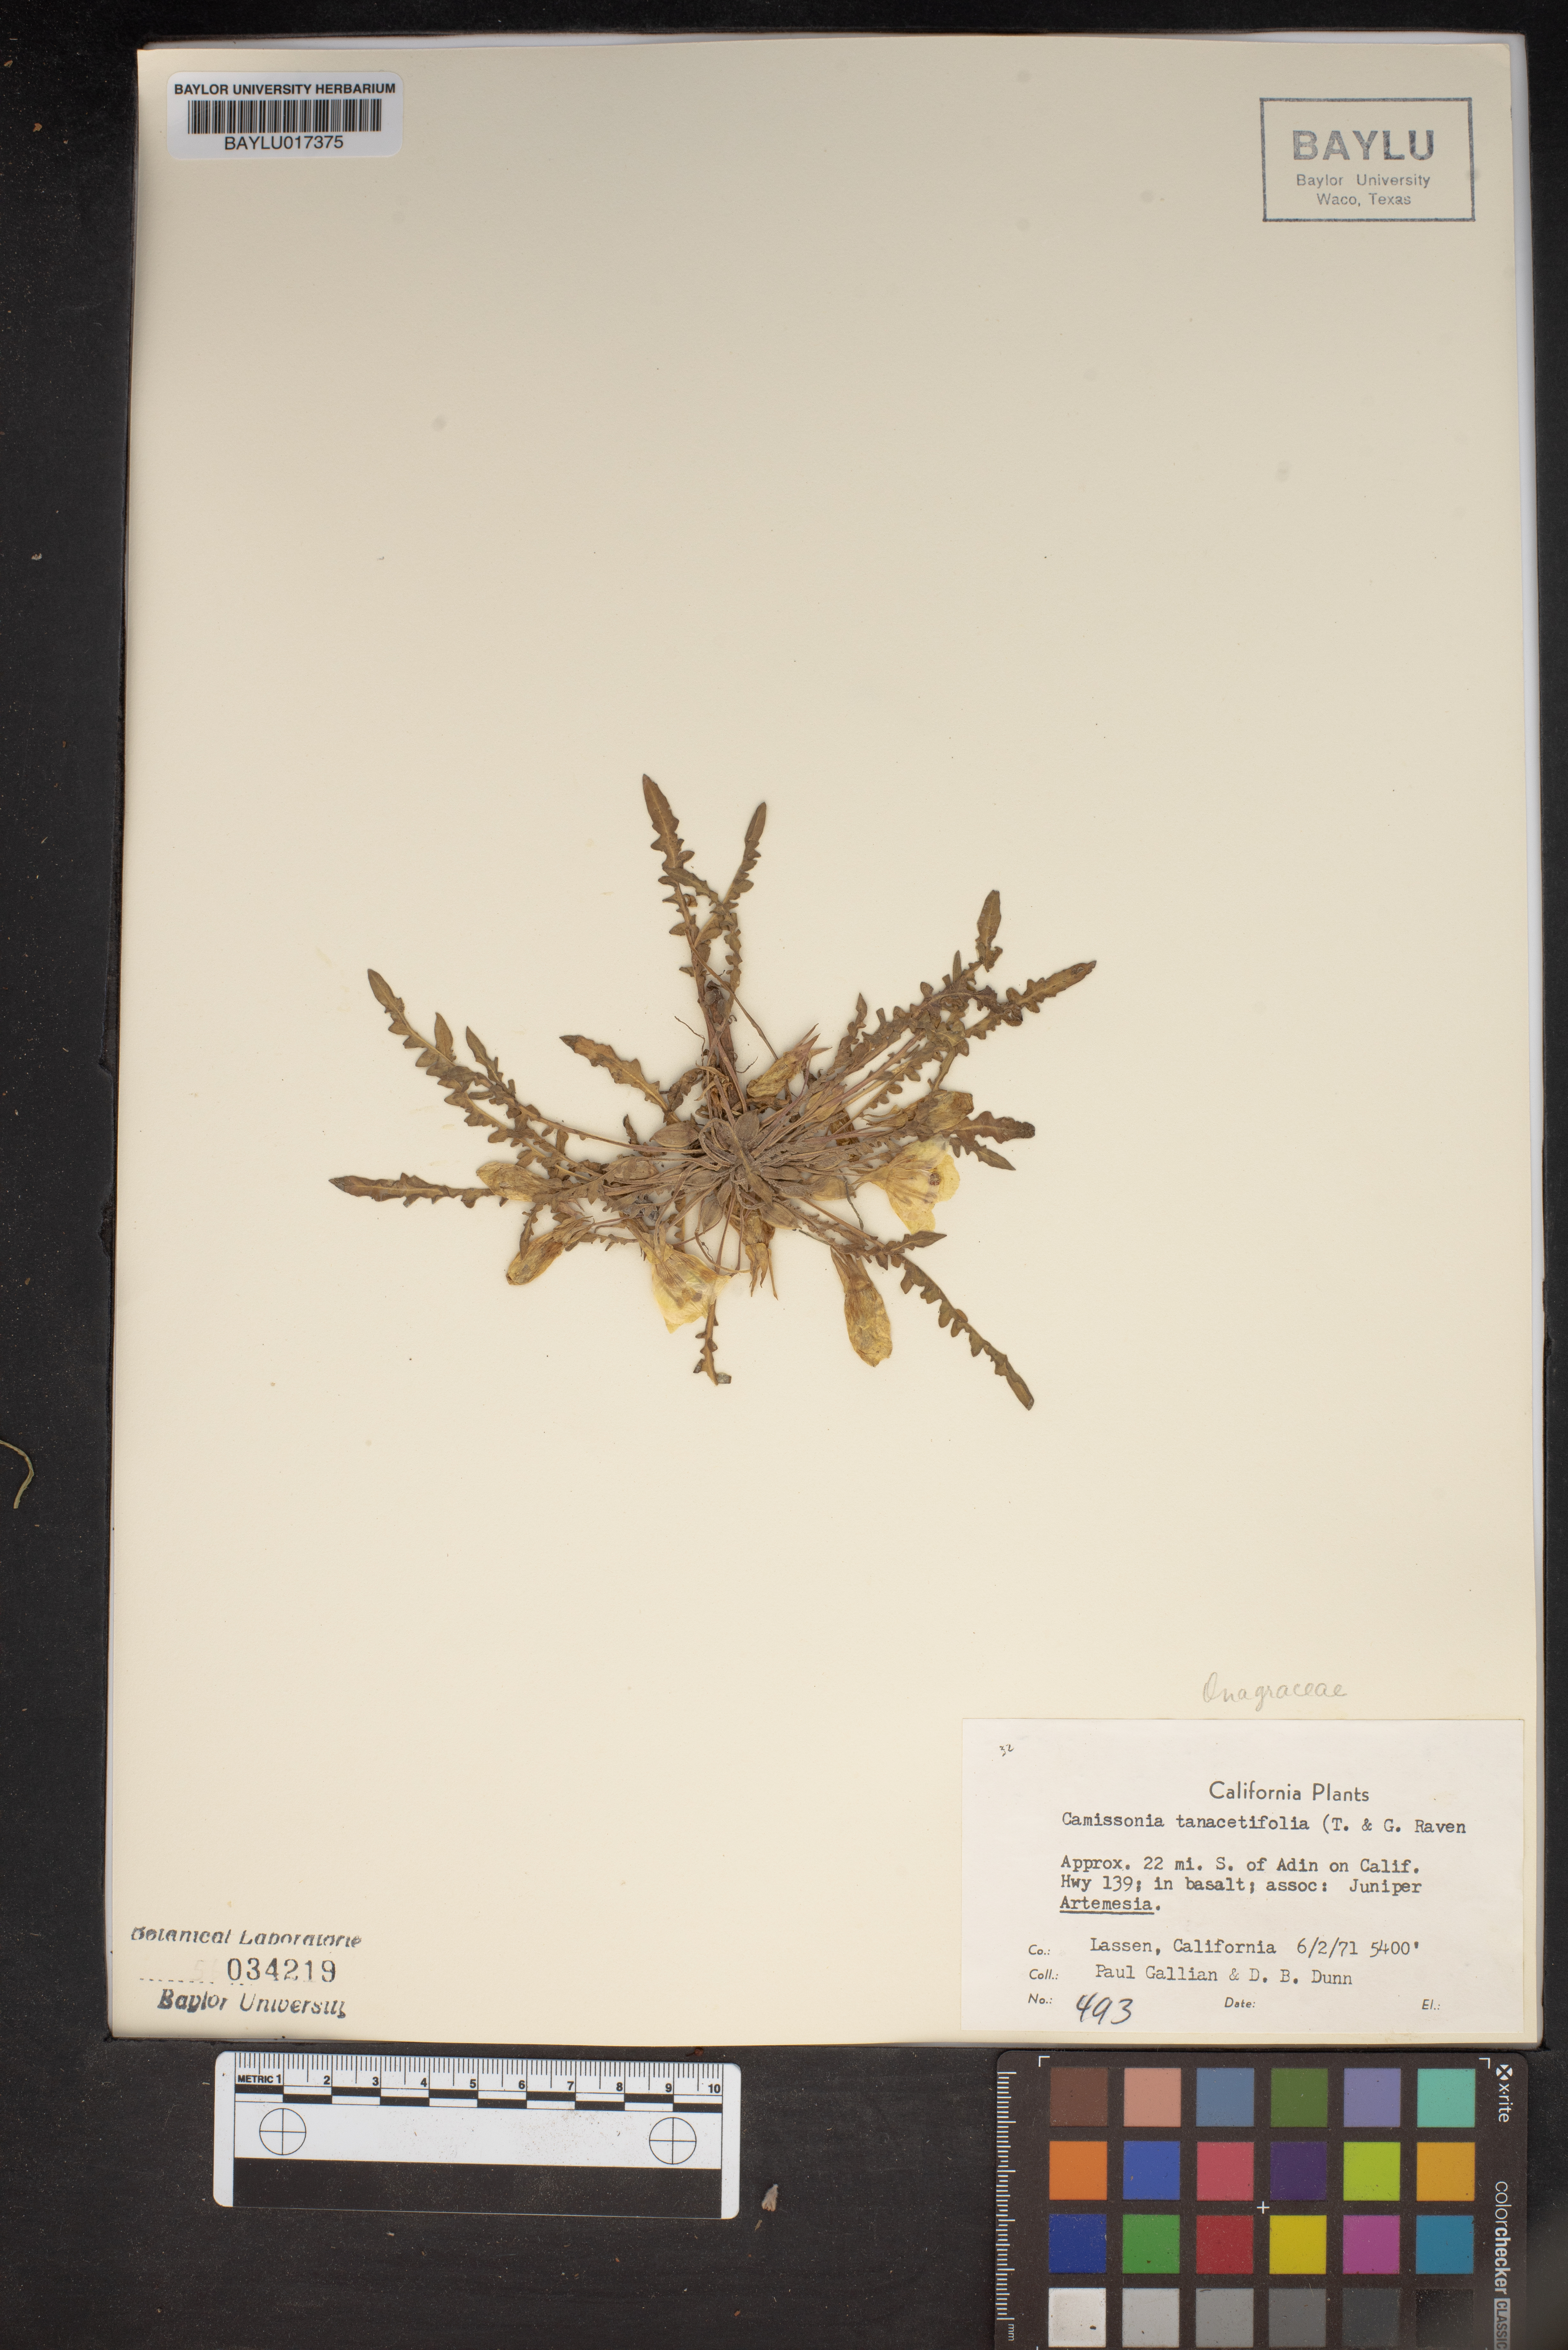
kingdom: Plantae
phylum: Tracheophyta
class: Magnoliopsida
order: Myrtales
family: Onagraceae
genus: Taraxia
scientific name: Taraxia tanacetifolia
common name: Tansyleaf evening primrose
